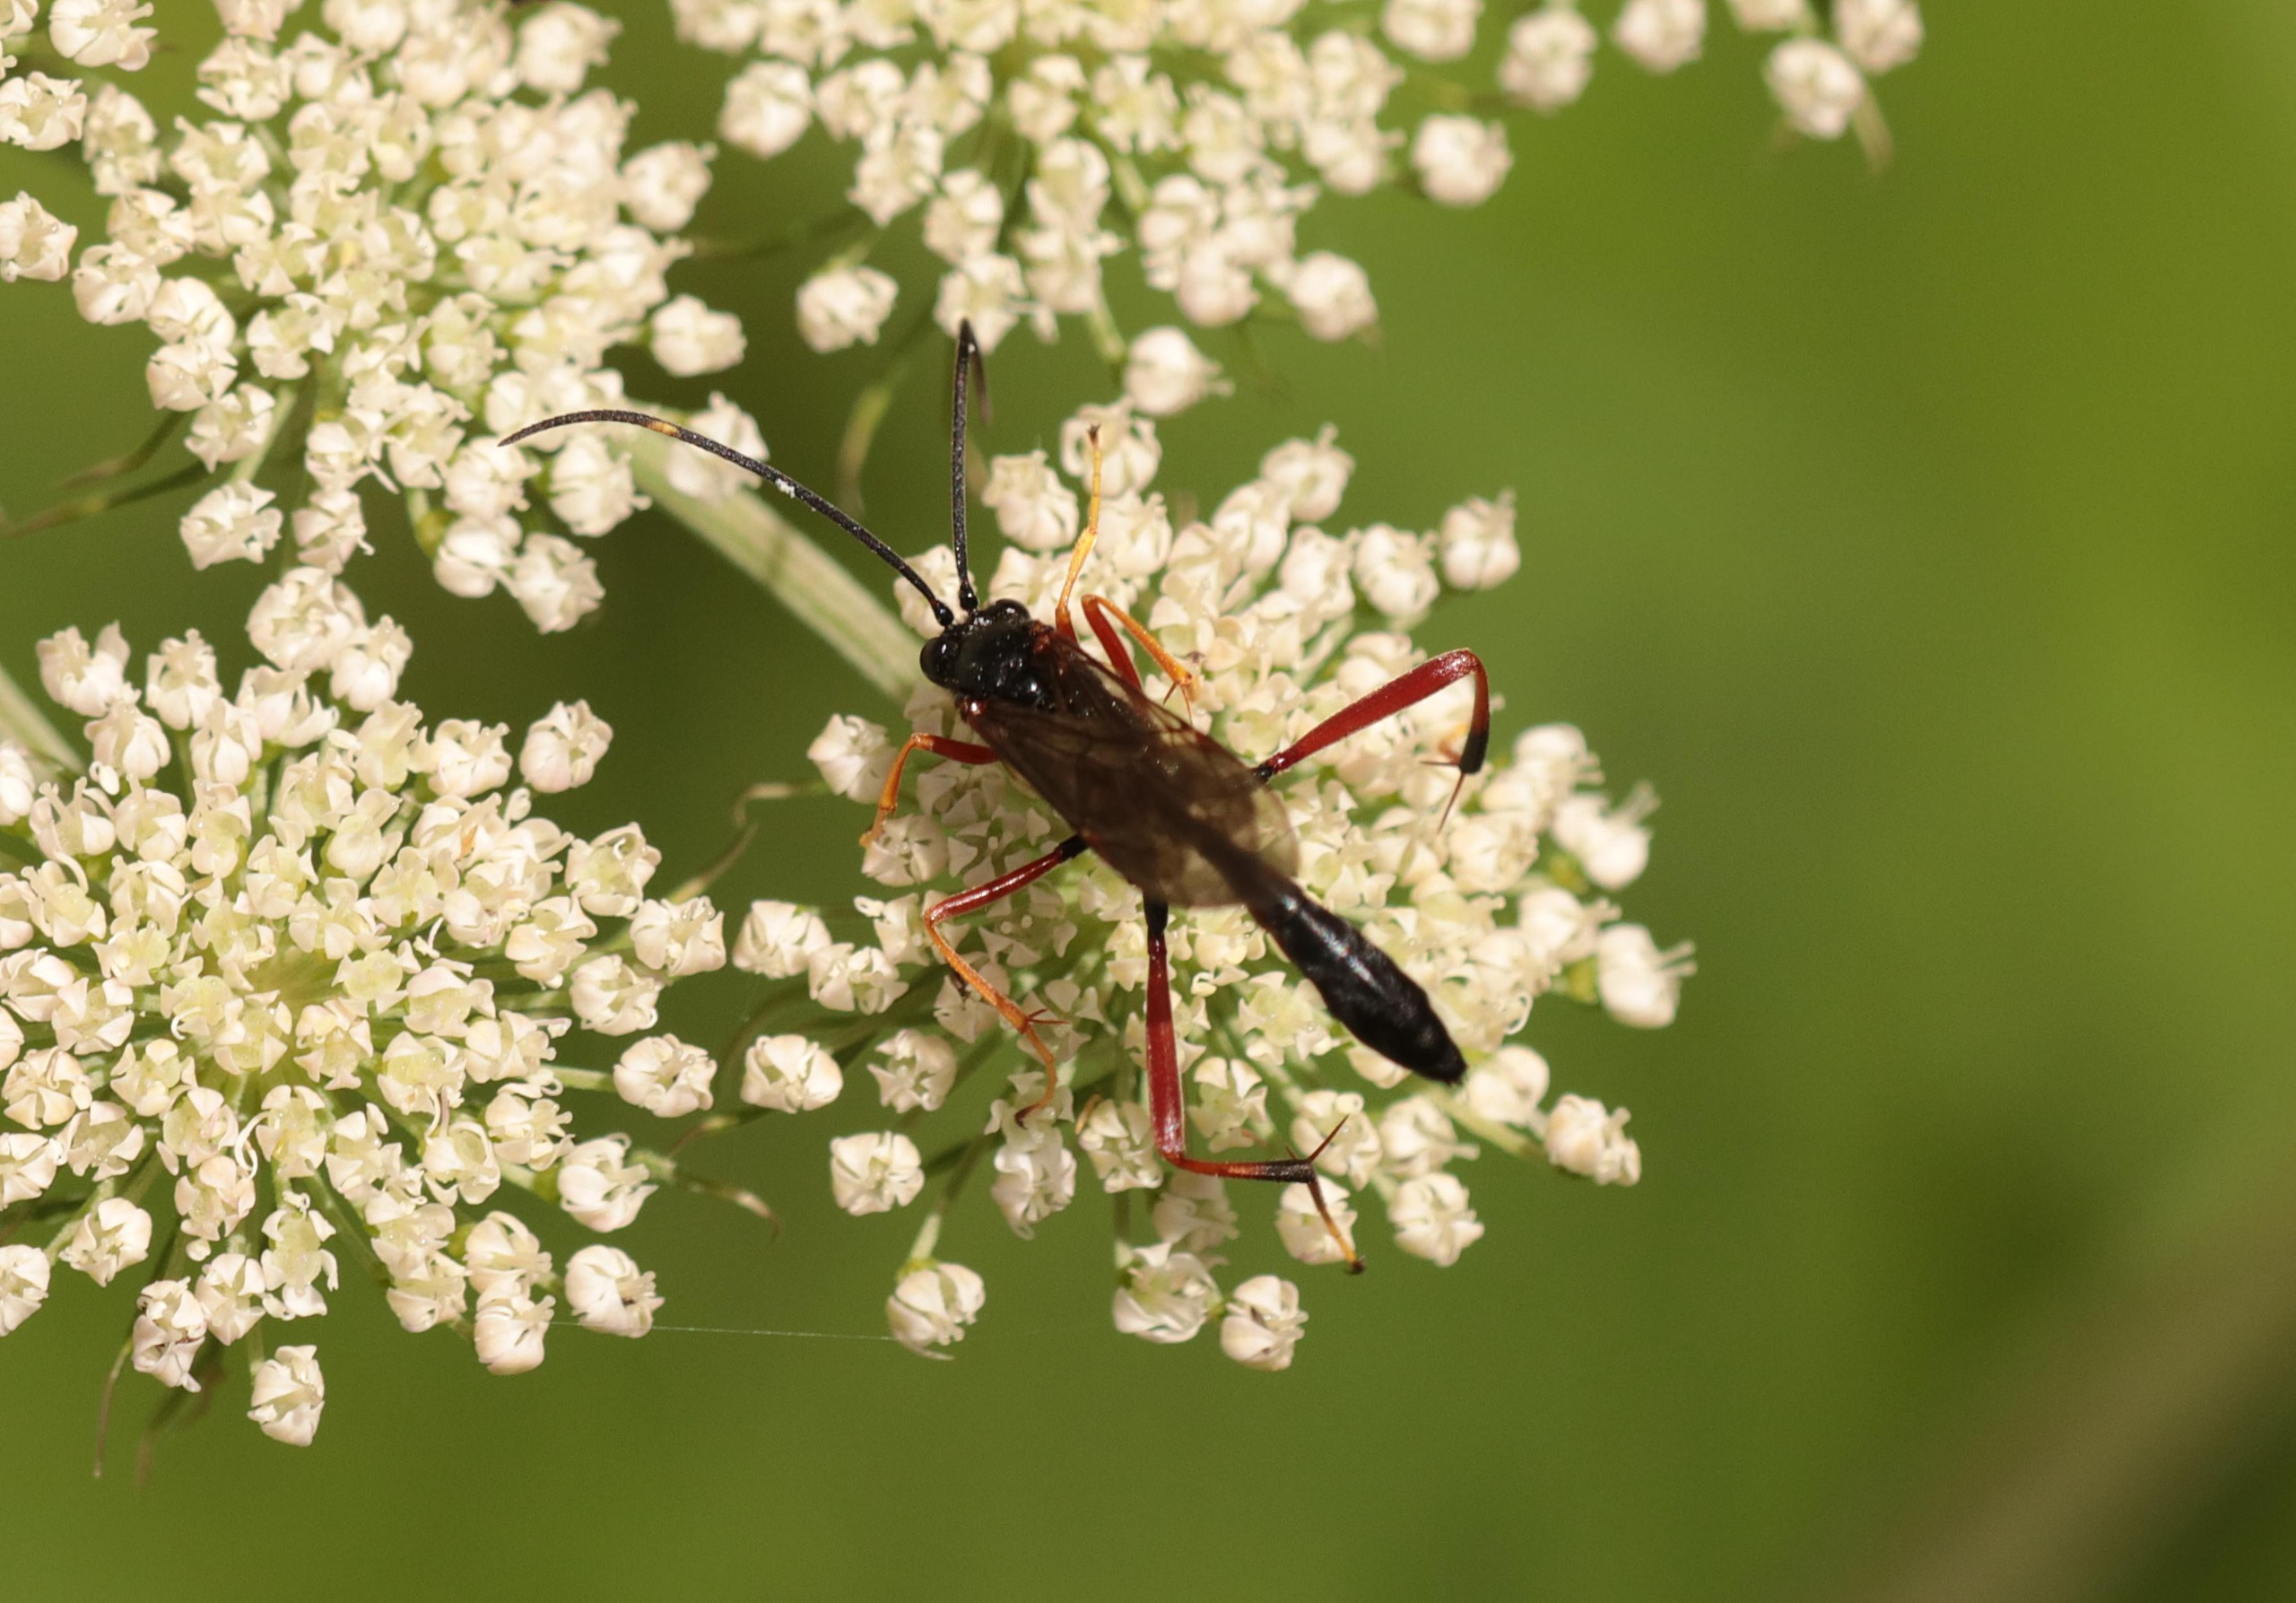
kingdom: Animalia
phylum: Arthropoda
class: Insecta
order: Hymenoptera
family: Ichneumonidae
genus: Acroricnus
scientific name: Acroricnus stylator
